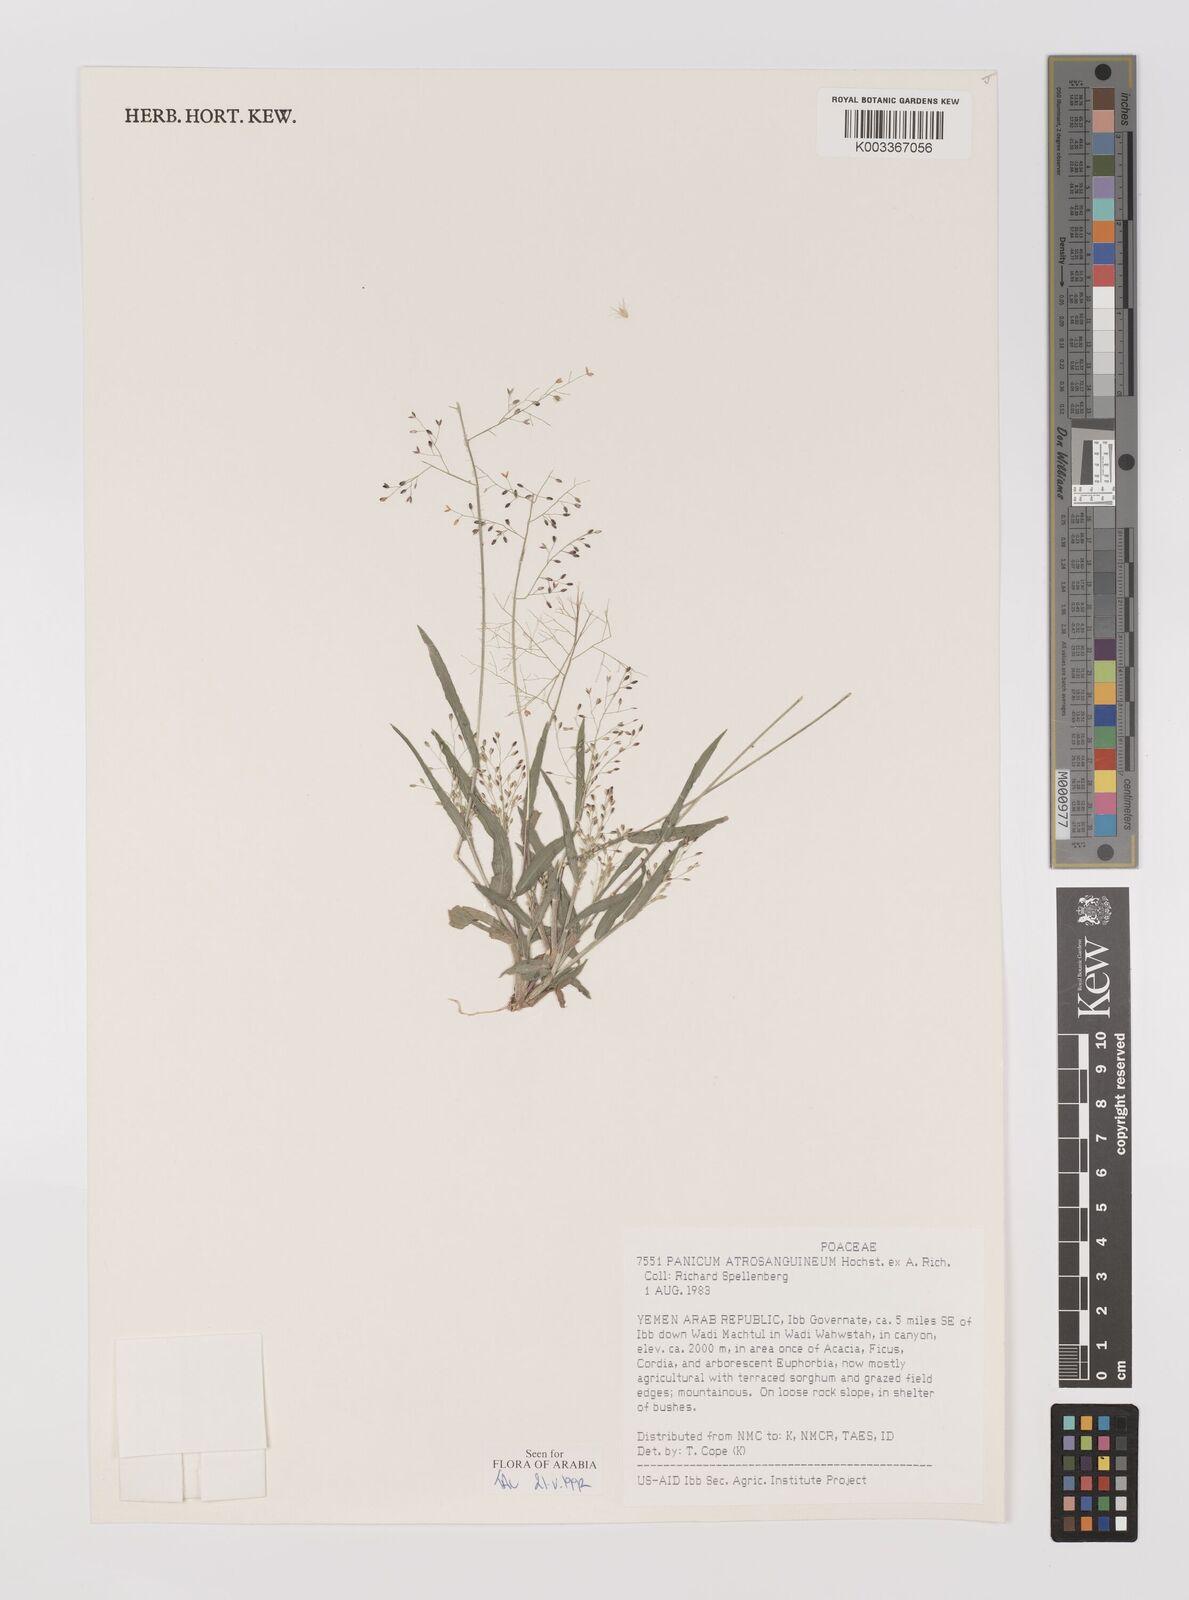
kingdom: Plantae
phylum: Tracheophyta
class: Liliopsida
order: Poales
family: Poaceae
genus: Panicum
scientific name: Panicum atrosanguineum
